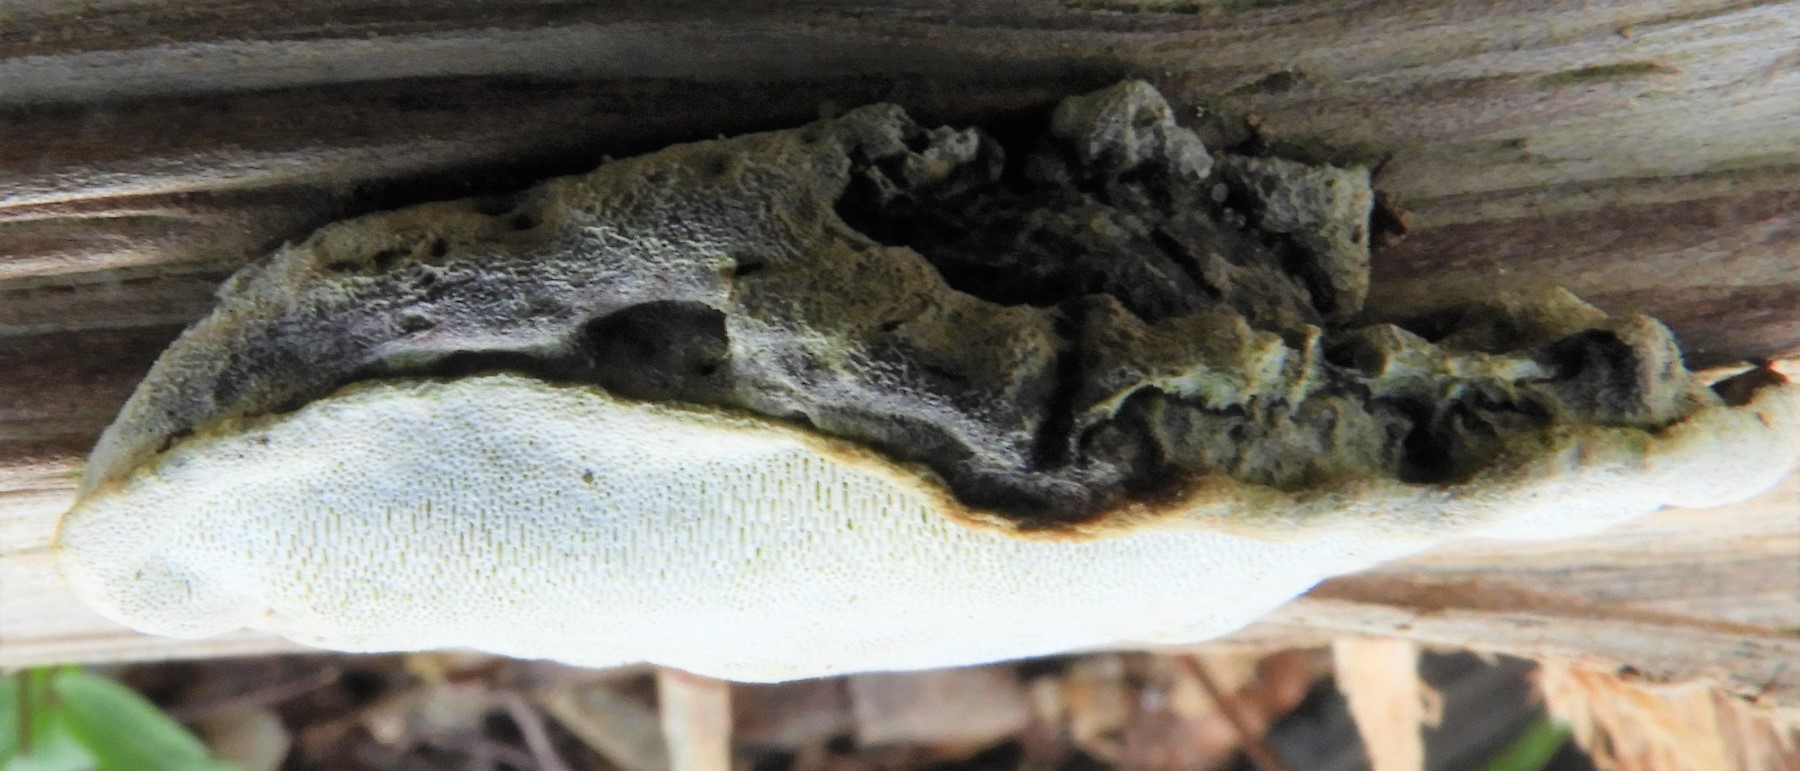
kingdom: Fungi
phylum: Basidiomycota
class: Agaricomycetes
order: Polyporales
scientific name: Polyporales
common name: poresvampordenen
